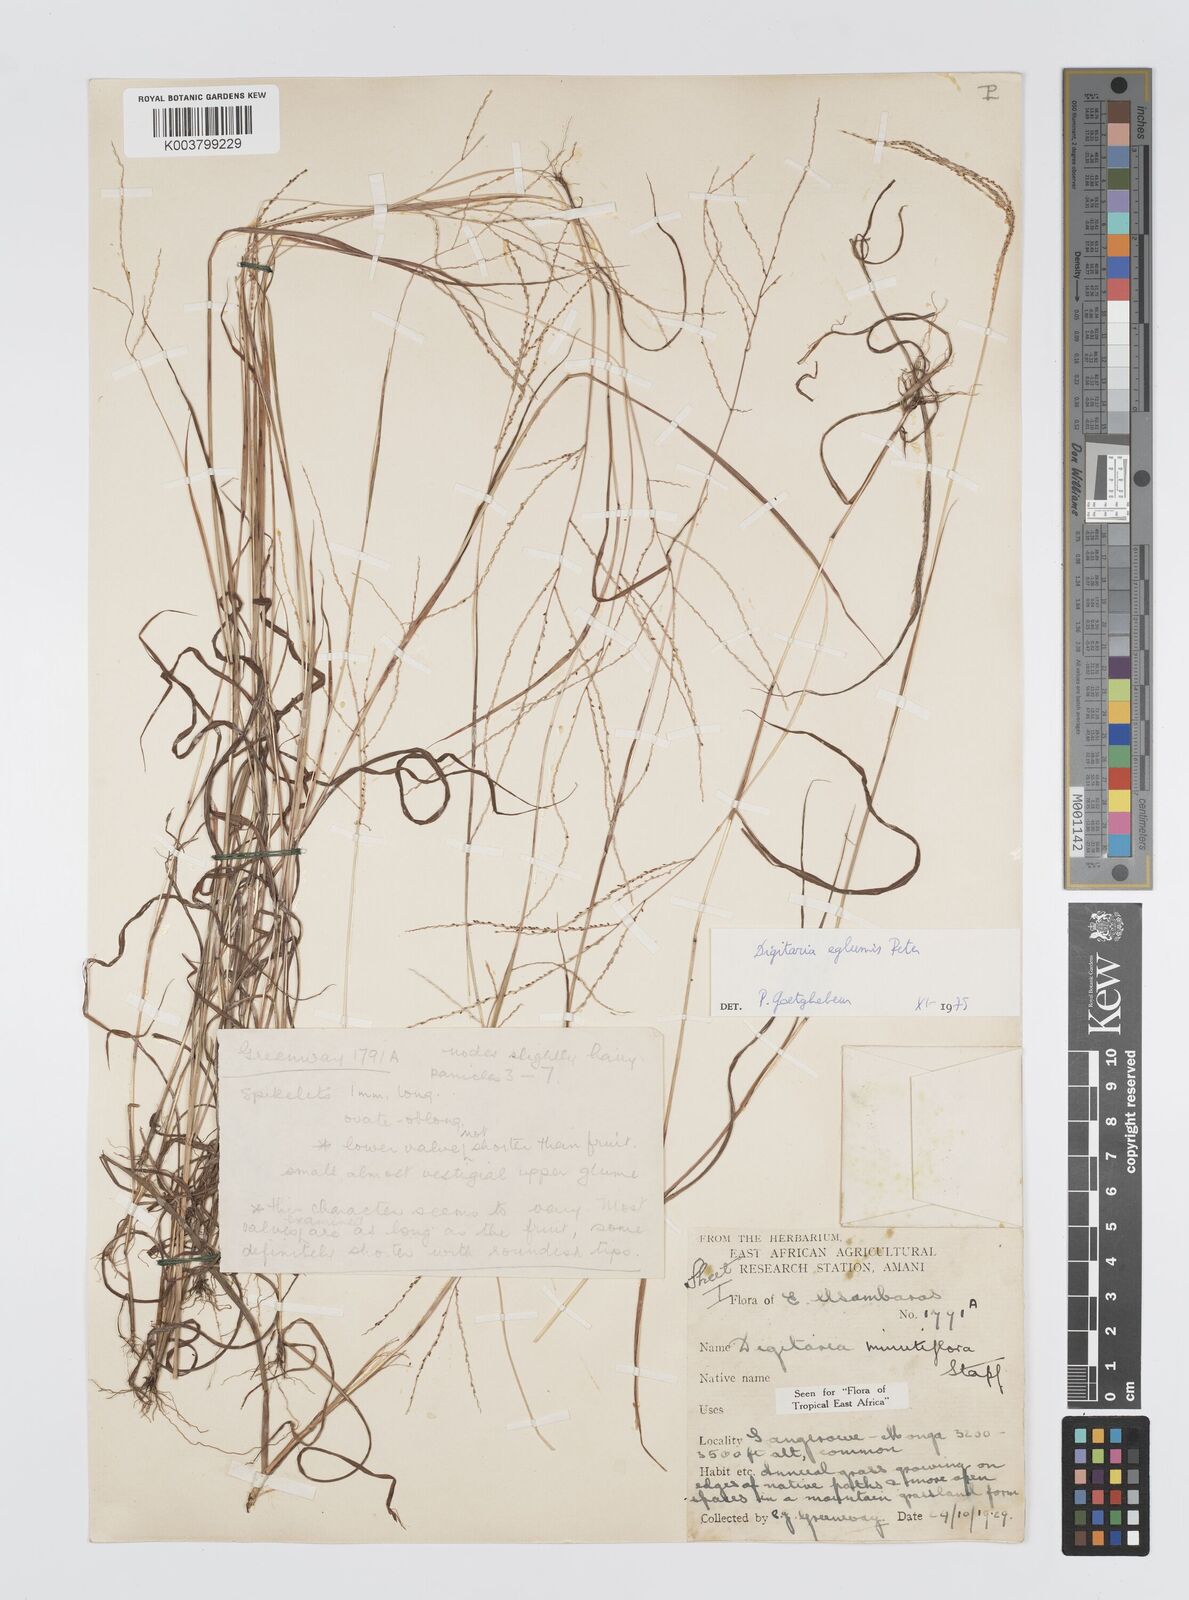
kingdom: Plantae
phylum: Tracheophyta
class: Liliopsida
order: Poales
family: Poaceae
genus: Digitaria
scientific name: Digitaria pseudodiagonalis
